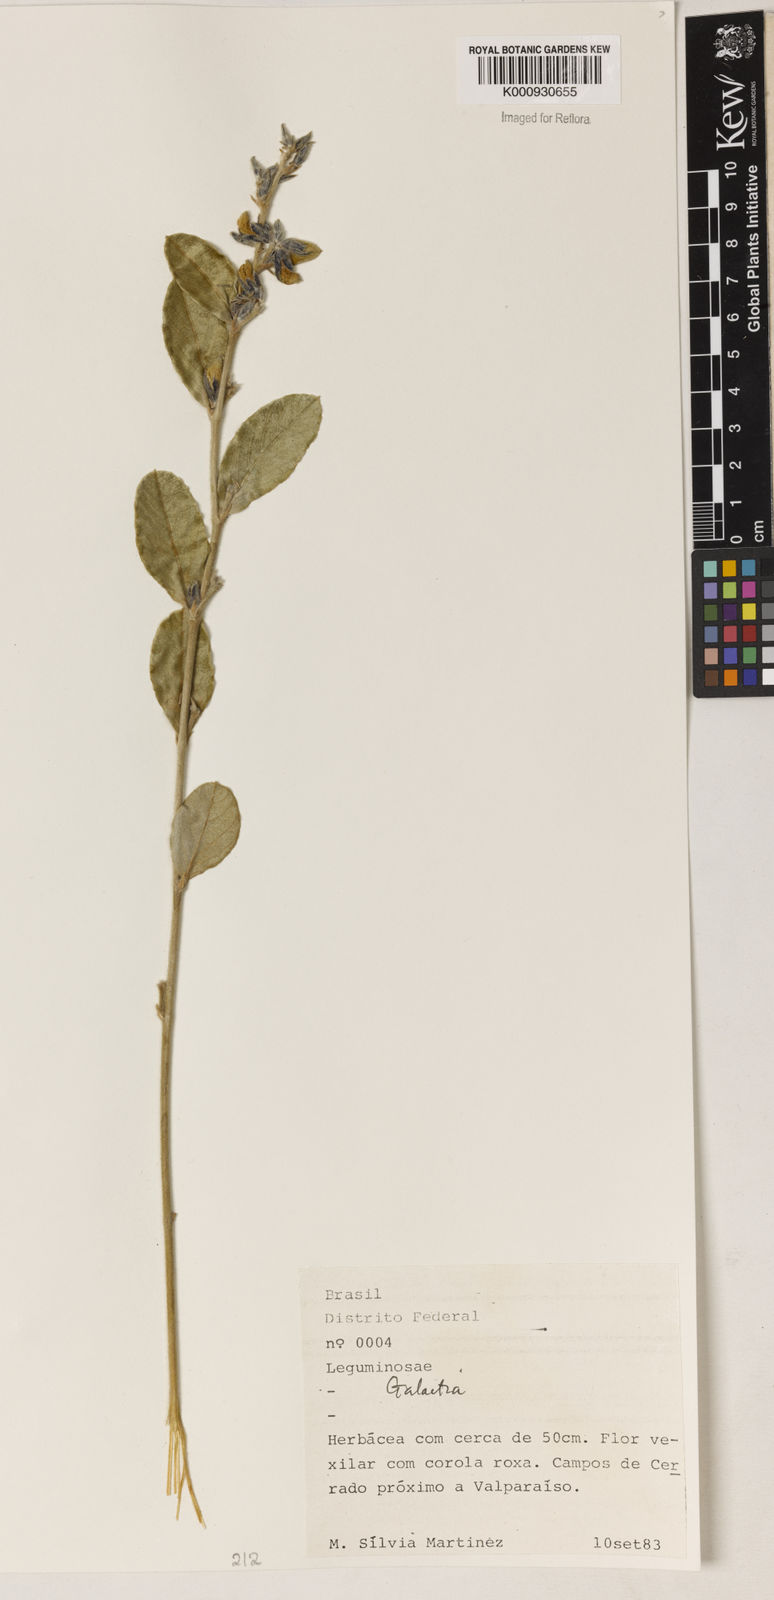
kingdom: Plantae
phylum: Tracheophyta
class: Magnoliopsida
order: Fabales
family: Fabaceae
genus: Galactia
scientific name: Galactia
